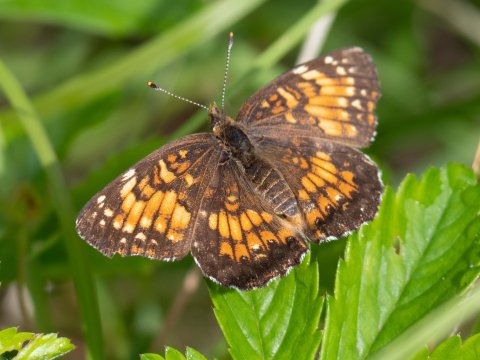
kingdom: Animalia
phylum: Arthropoda
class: Insecta
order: Lepidoptera
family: Nymphalidae
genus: Chlosyne
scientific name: Chlosyne harrisii
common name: Harris's Checkerspot
